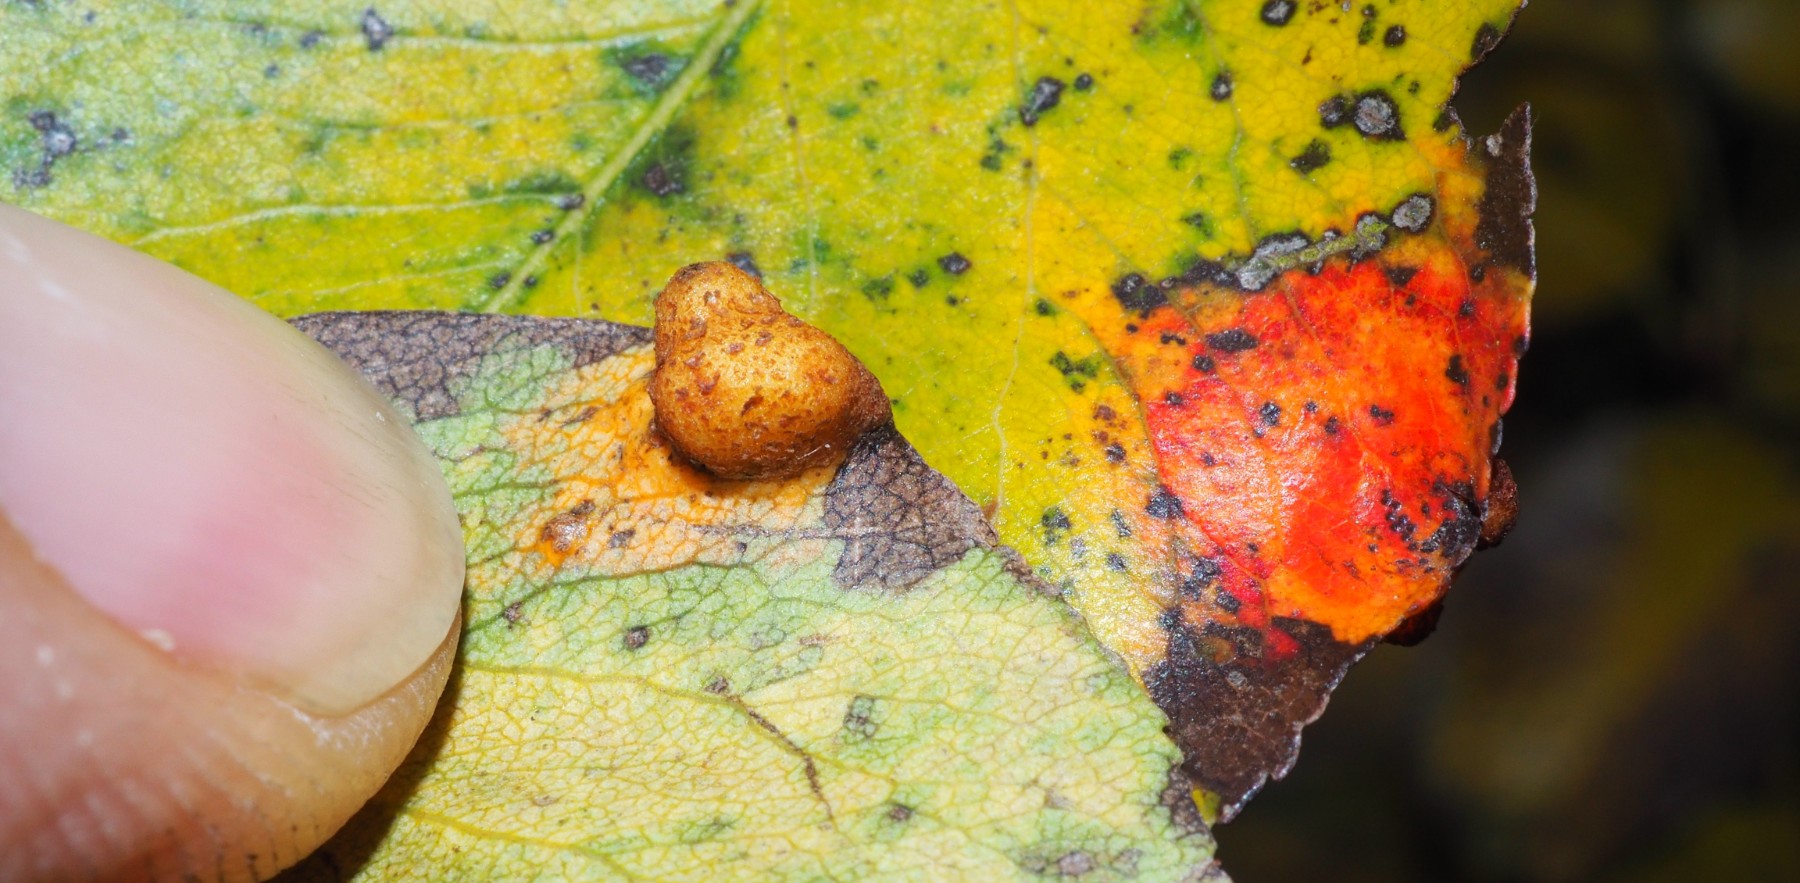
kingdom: Fungi
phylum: Basidiomycota
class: Pucciniomycetes
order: Pucciniales
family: Gymnosporangiaceae
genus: Gymnosporangium
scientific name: Gymnosporangium sabinae
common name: pæregitter-bævrerust
